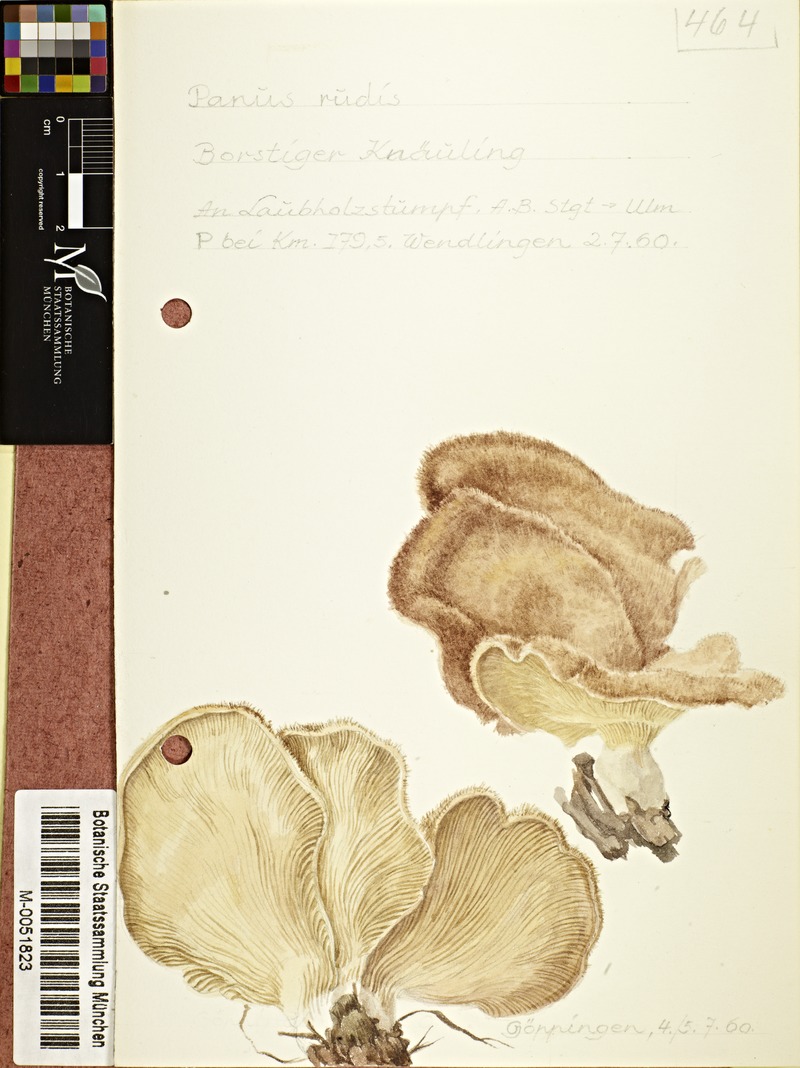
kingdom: Fungi
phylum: Basidiomycota
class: Agaricomycetes
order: Polyporales
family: Panaceae
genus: Panus
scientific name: Panus neostrigosus
